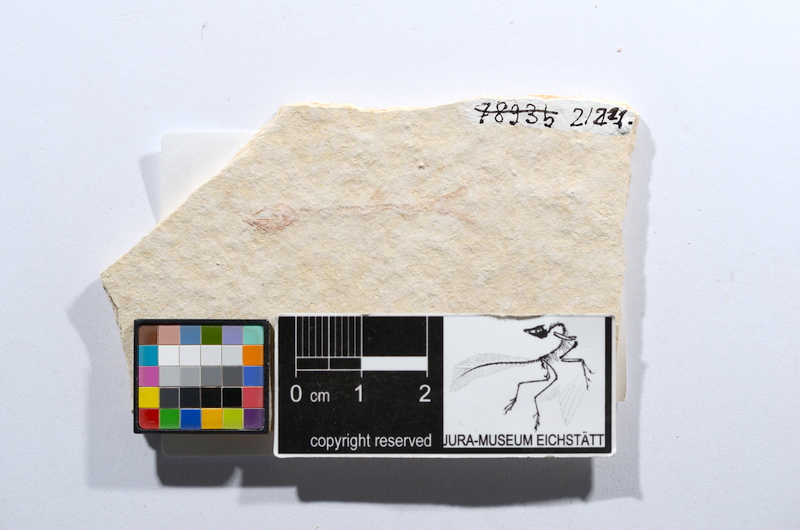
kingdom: Animalia
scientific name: Animalia
